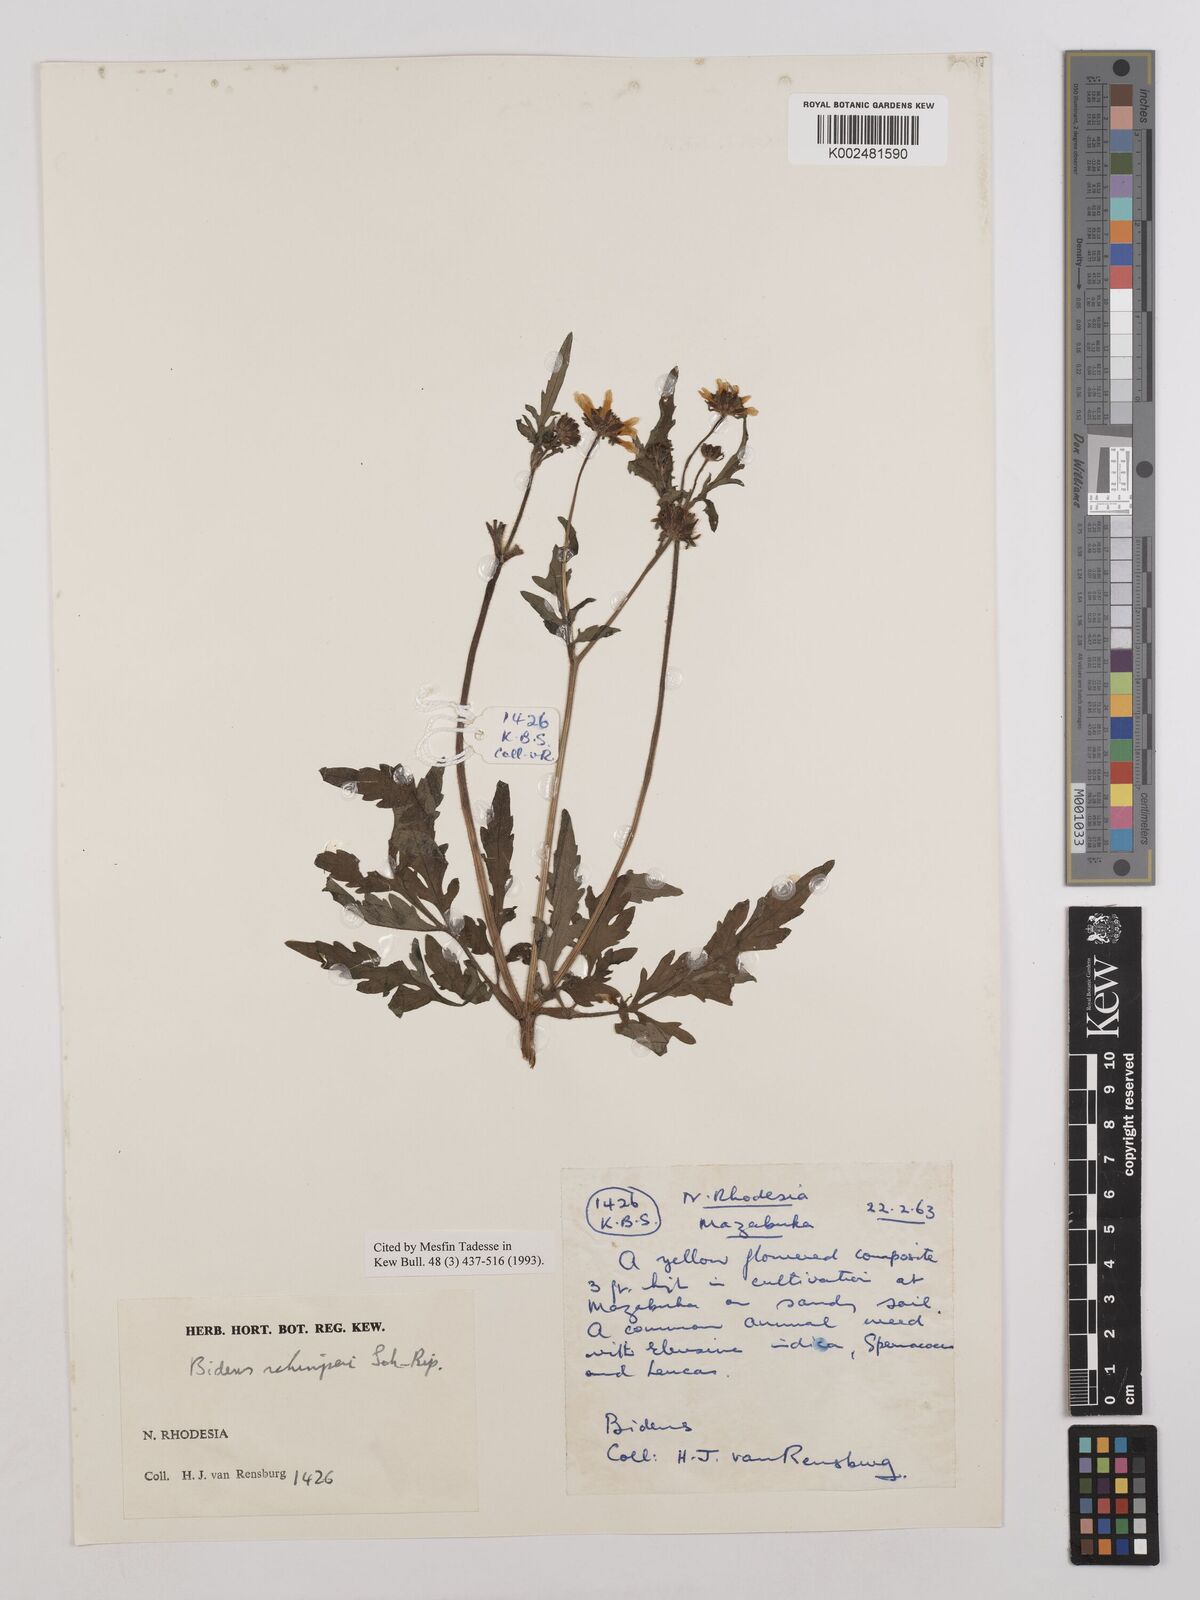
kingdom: Plantae
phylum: Tracheophyta
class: Magnoliopsida
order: Asterales
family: Asteraceae
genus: Bidens
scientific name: Bidens schimperi
